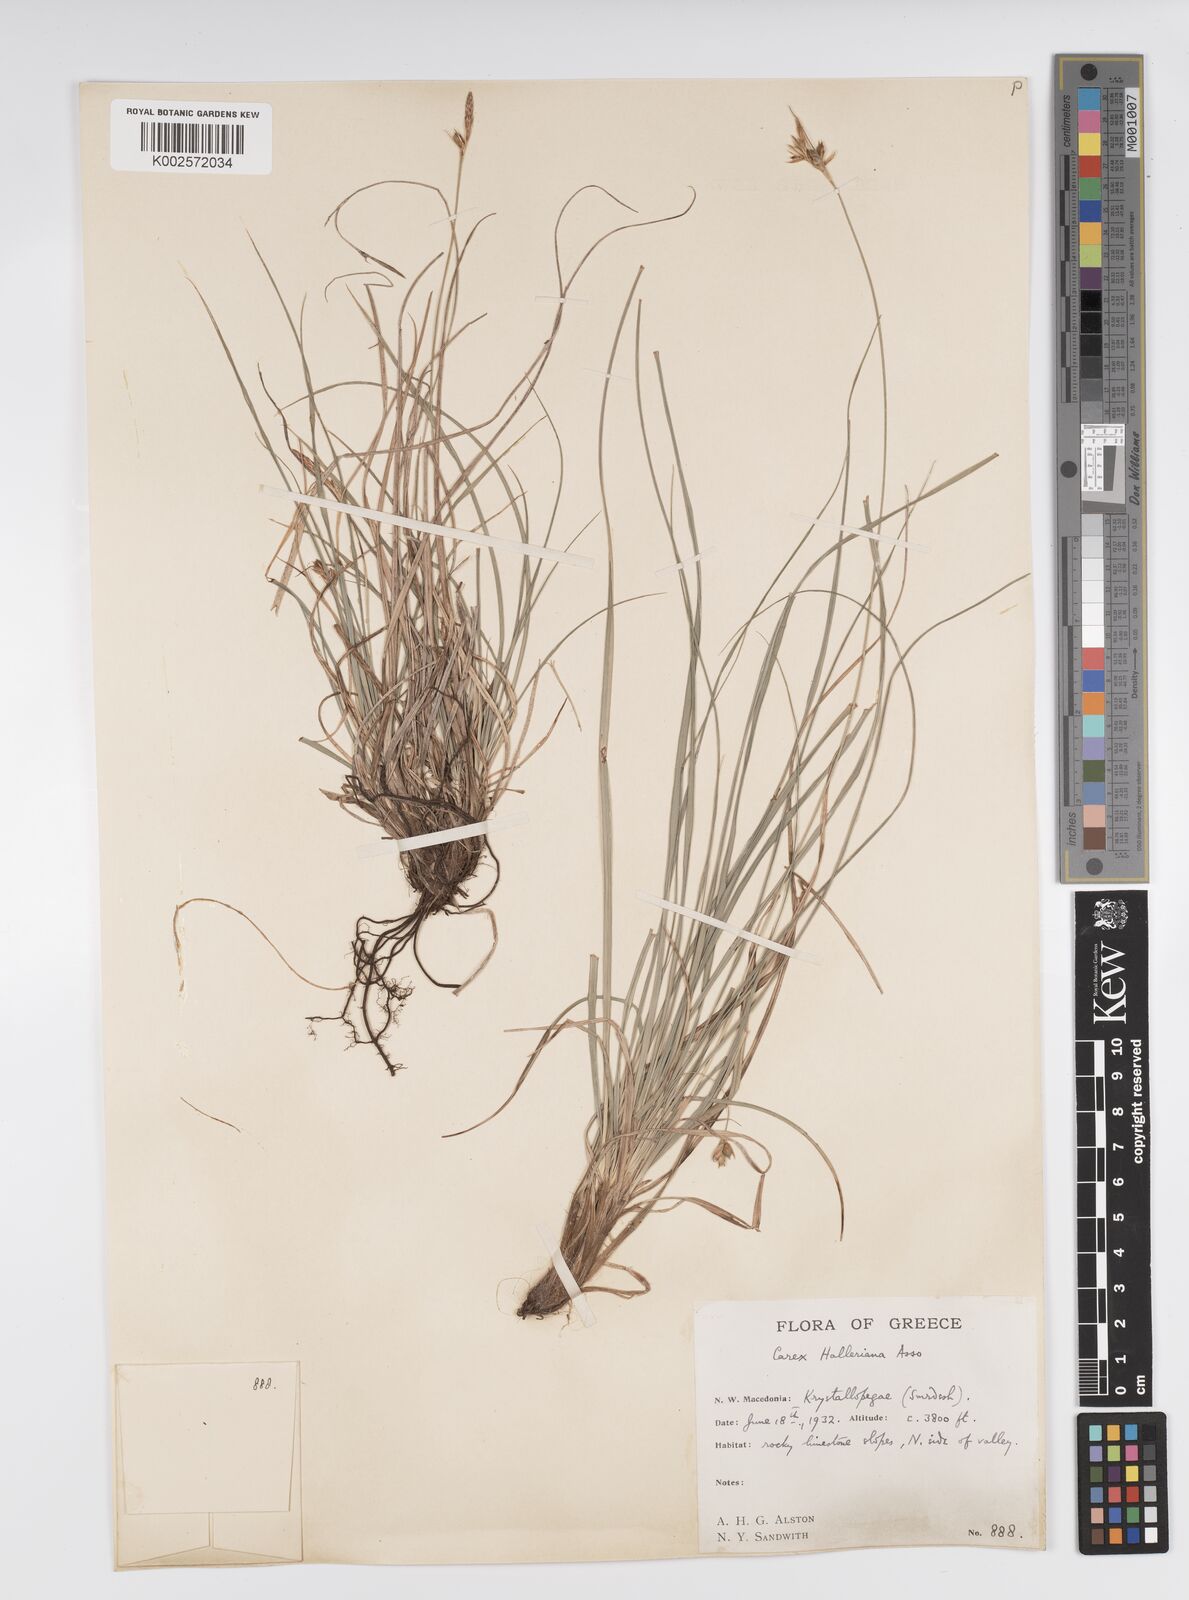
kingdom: Plantae
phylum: Tracheophyta
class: Liliopsida
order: Poales
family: Cyperaceae
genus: Carex
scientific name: Carex halleriana
